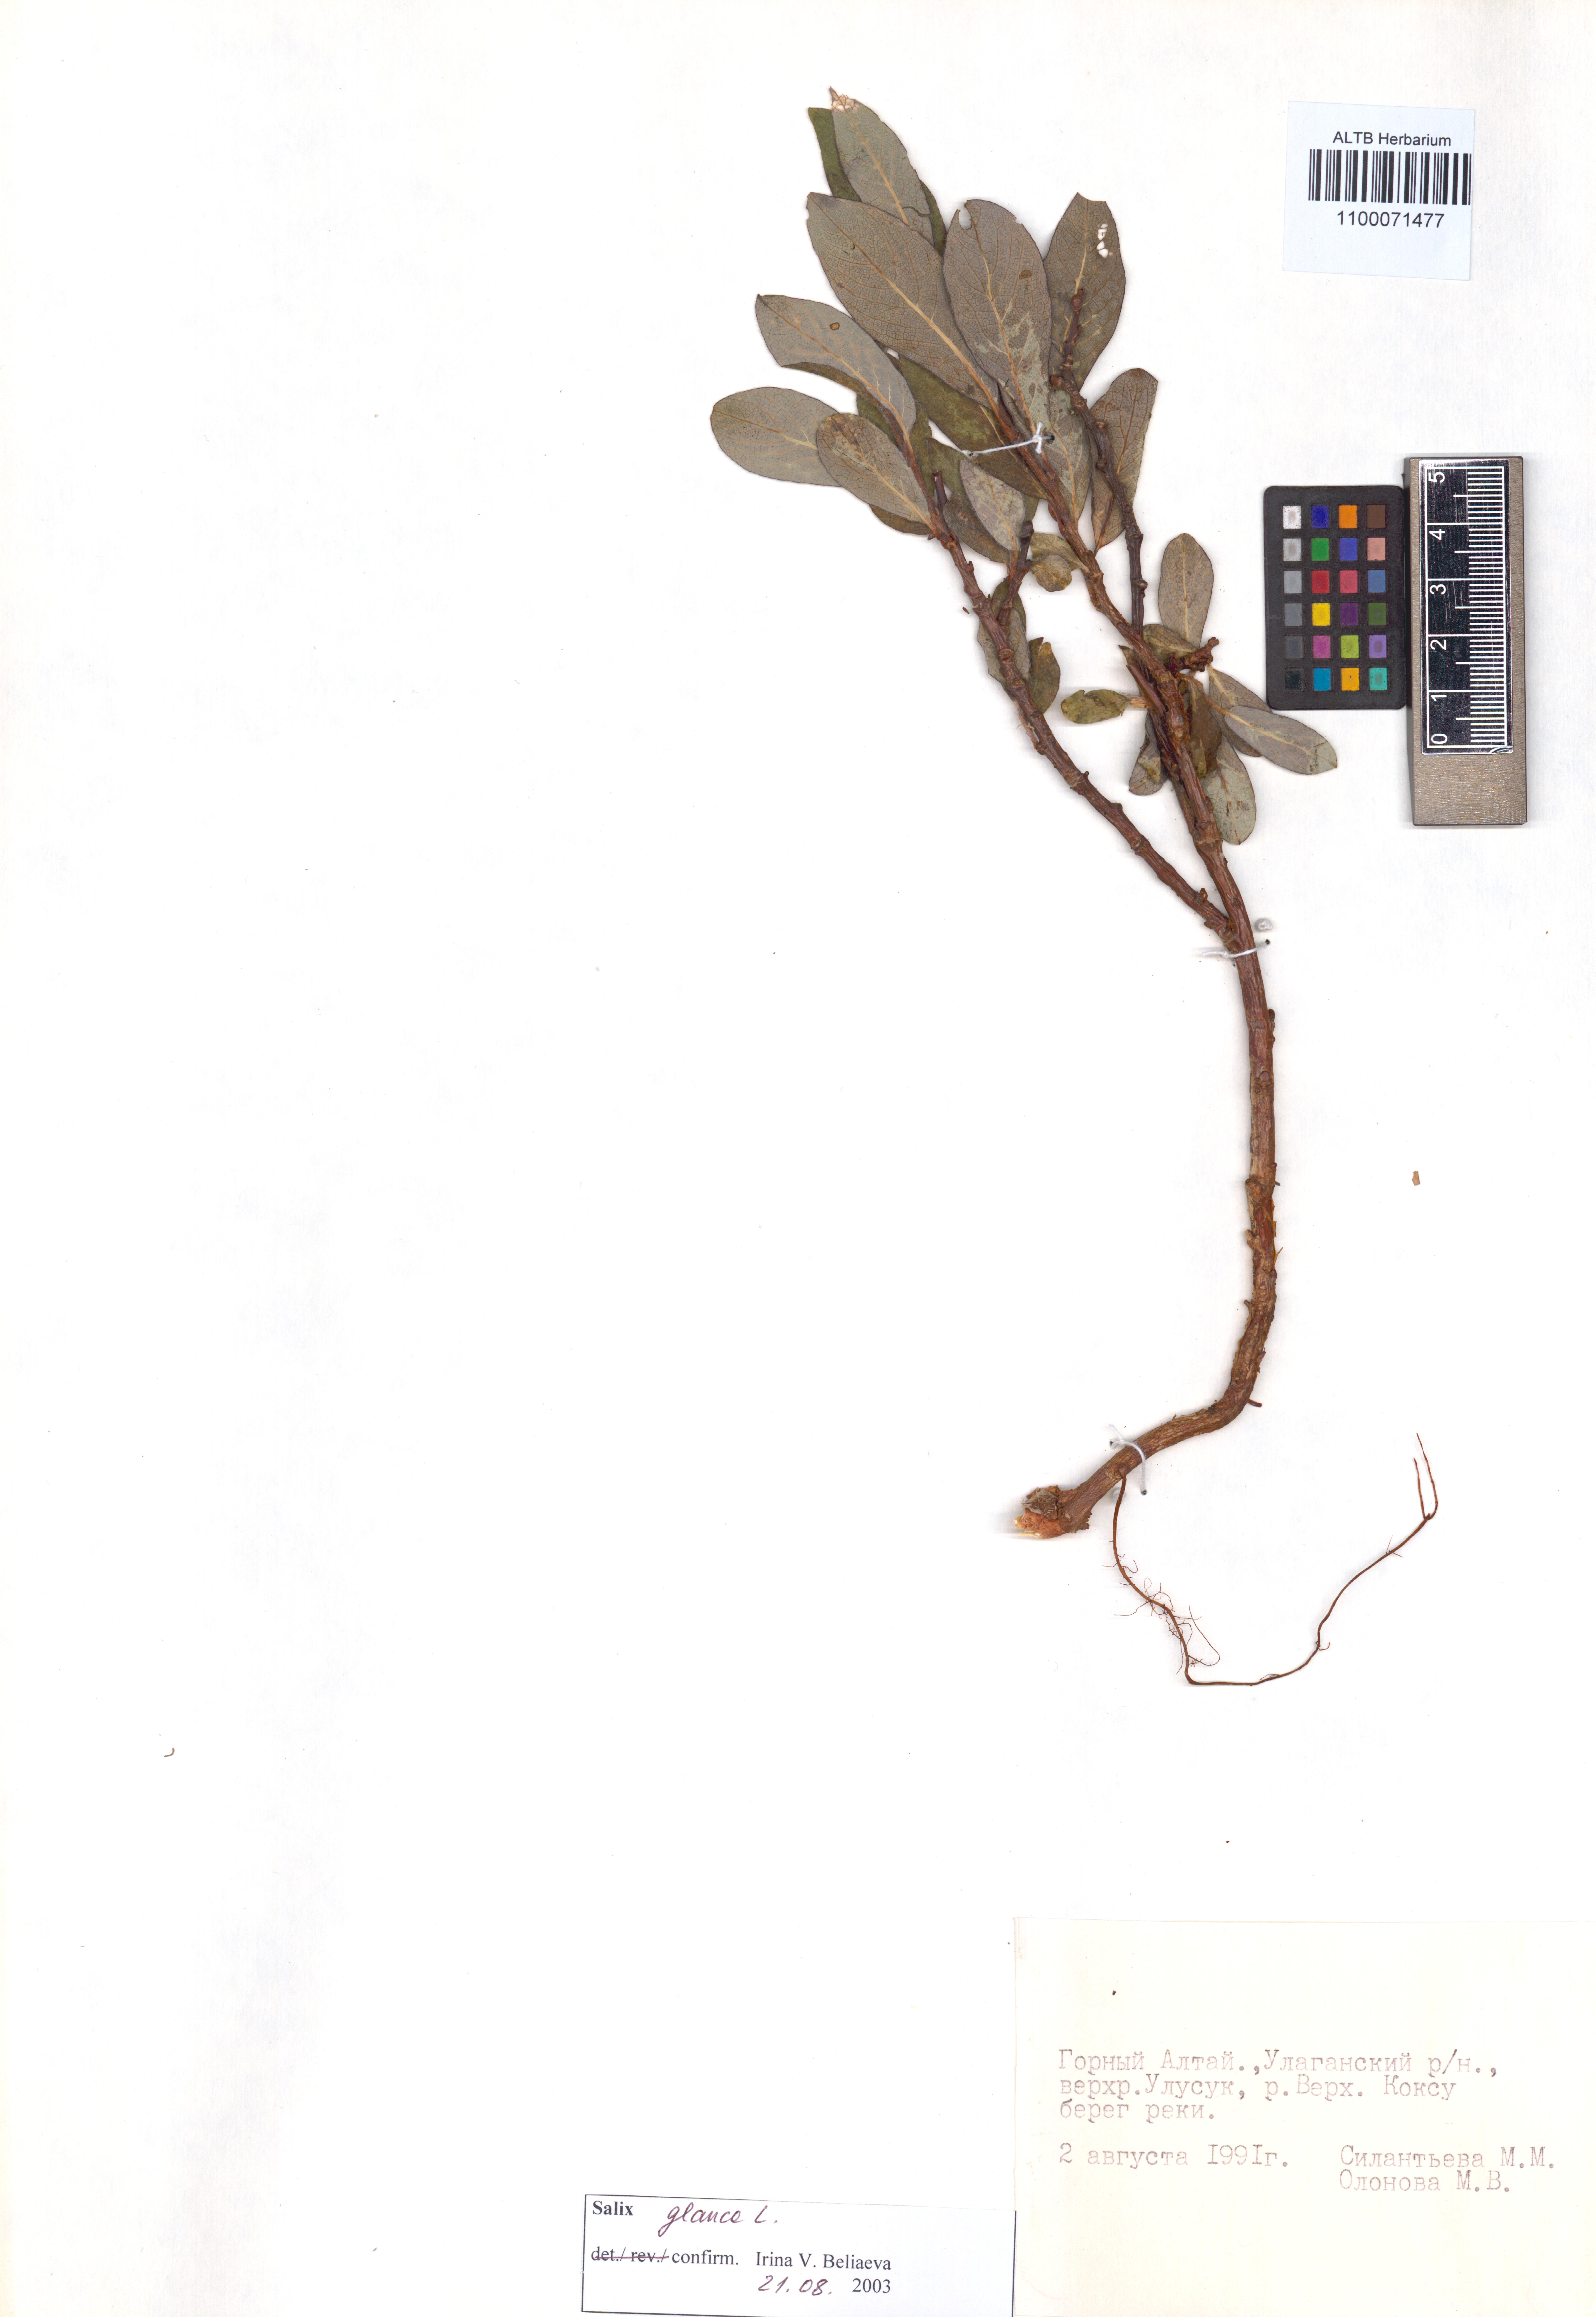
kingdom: Plantae
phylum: Tracheophyta
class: Magnoliopsida
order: Malpighiales
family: Salicaceae
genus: Salix
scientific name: Salix glauca
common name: Glaucous willow
